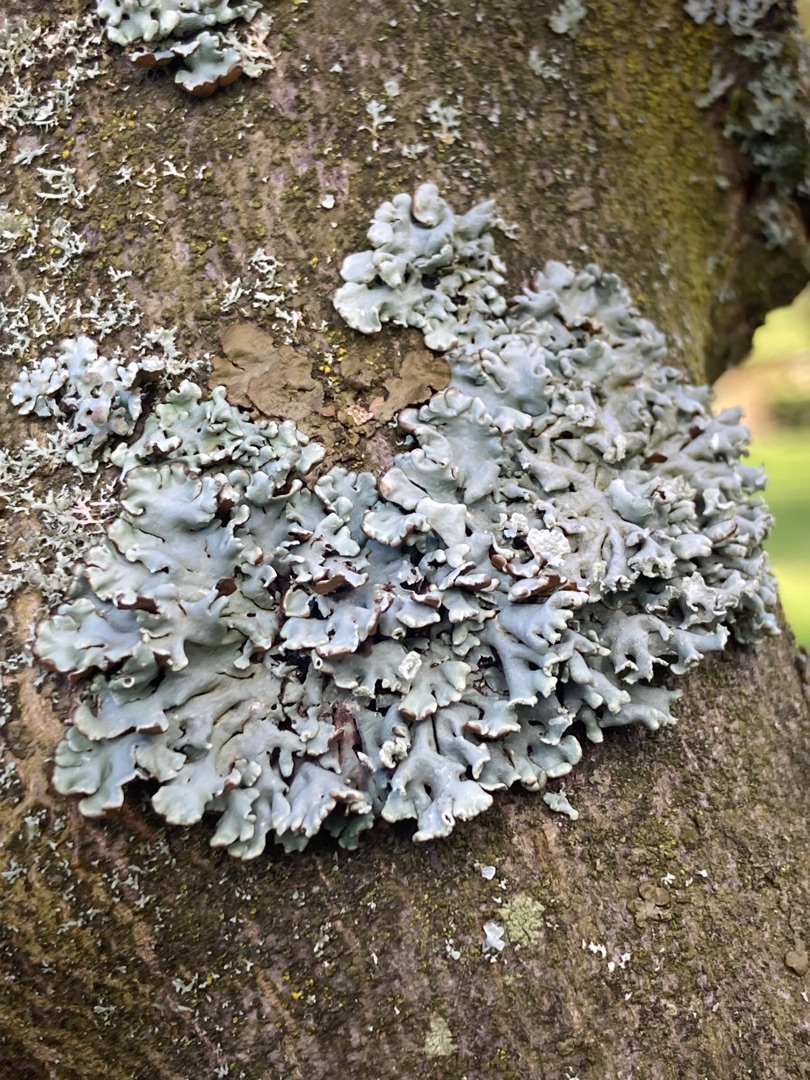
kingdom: Fungi
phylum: Ascomycota
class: Lecanoromycetes
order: Lecanorales
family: Parmeliaceae
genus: Hypogymnia
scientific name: Hypogymnia physodes
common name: Almindelig kvistlav
